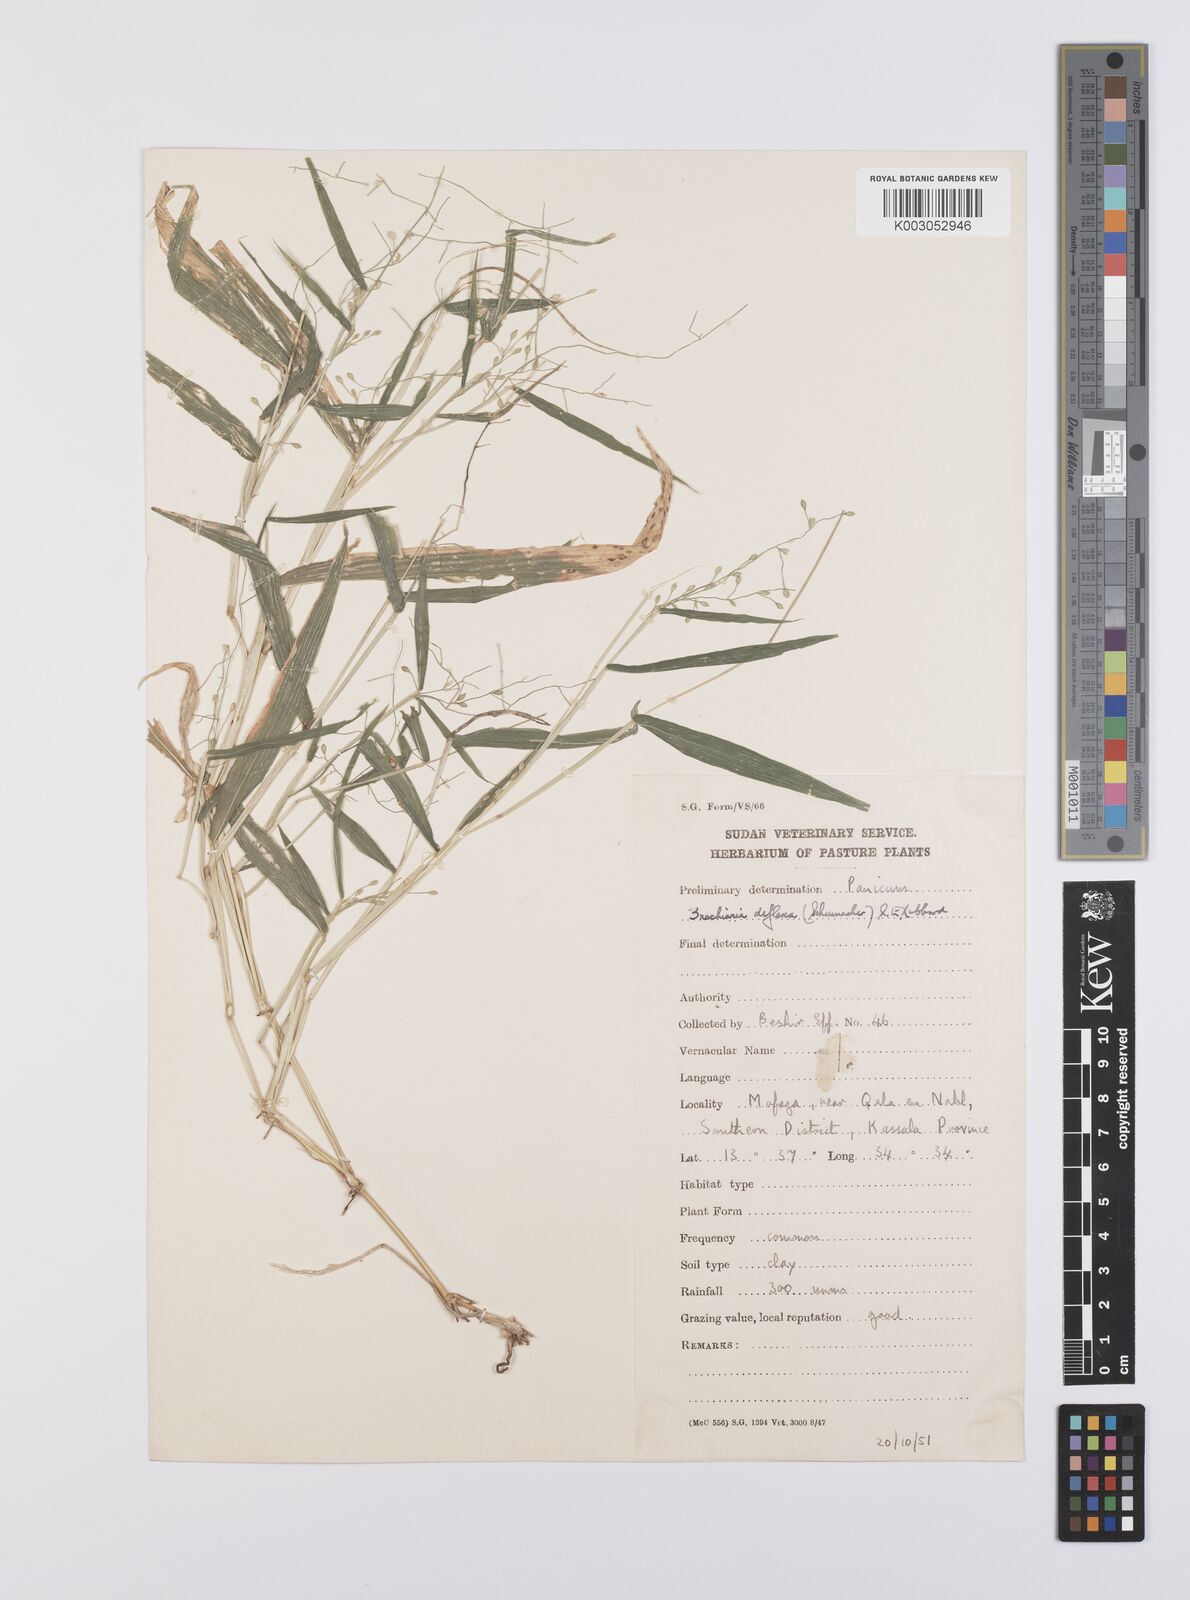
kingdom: Plantae
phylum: Tracheophyta
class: Liliopsida
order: Poales
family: Poaceae
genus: Urochloa
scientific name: Urochloa deflexa
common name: Guinea millet
